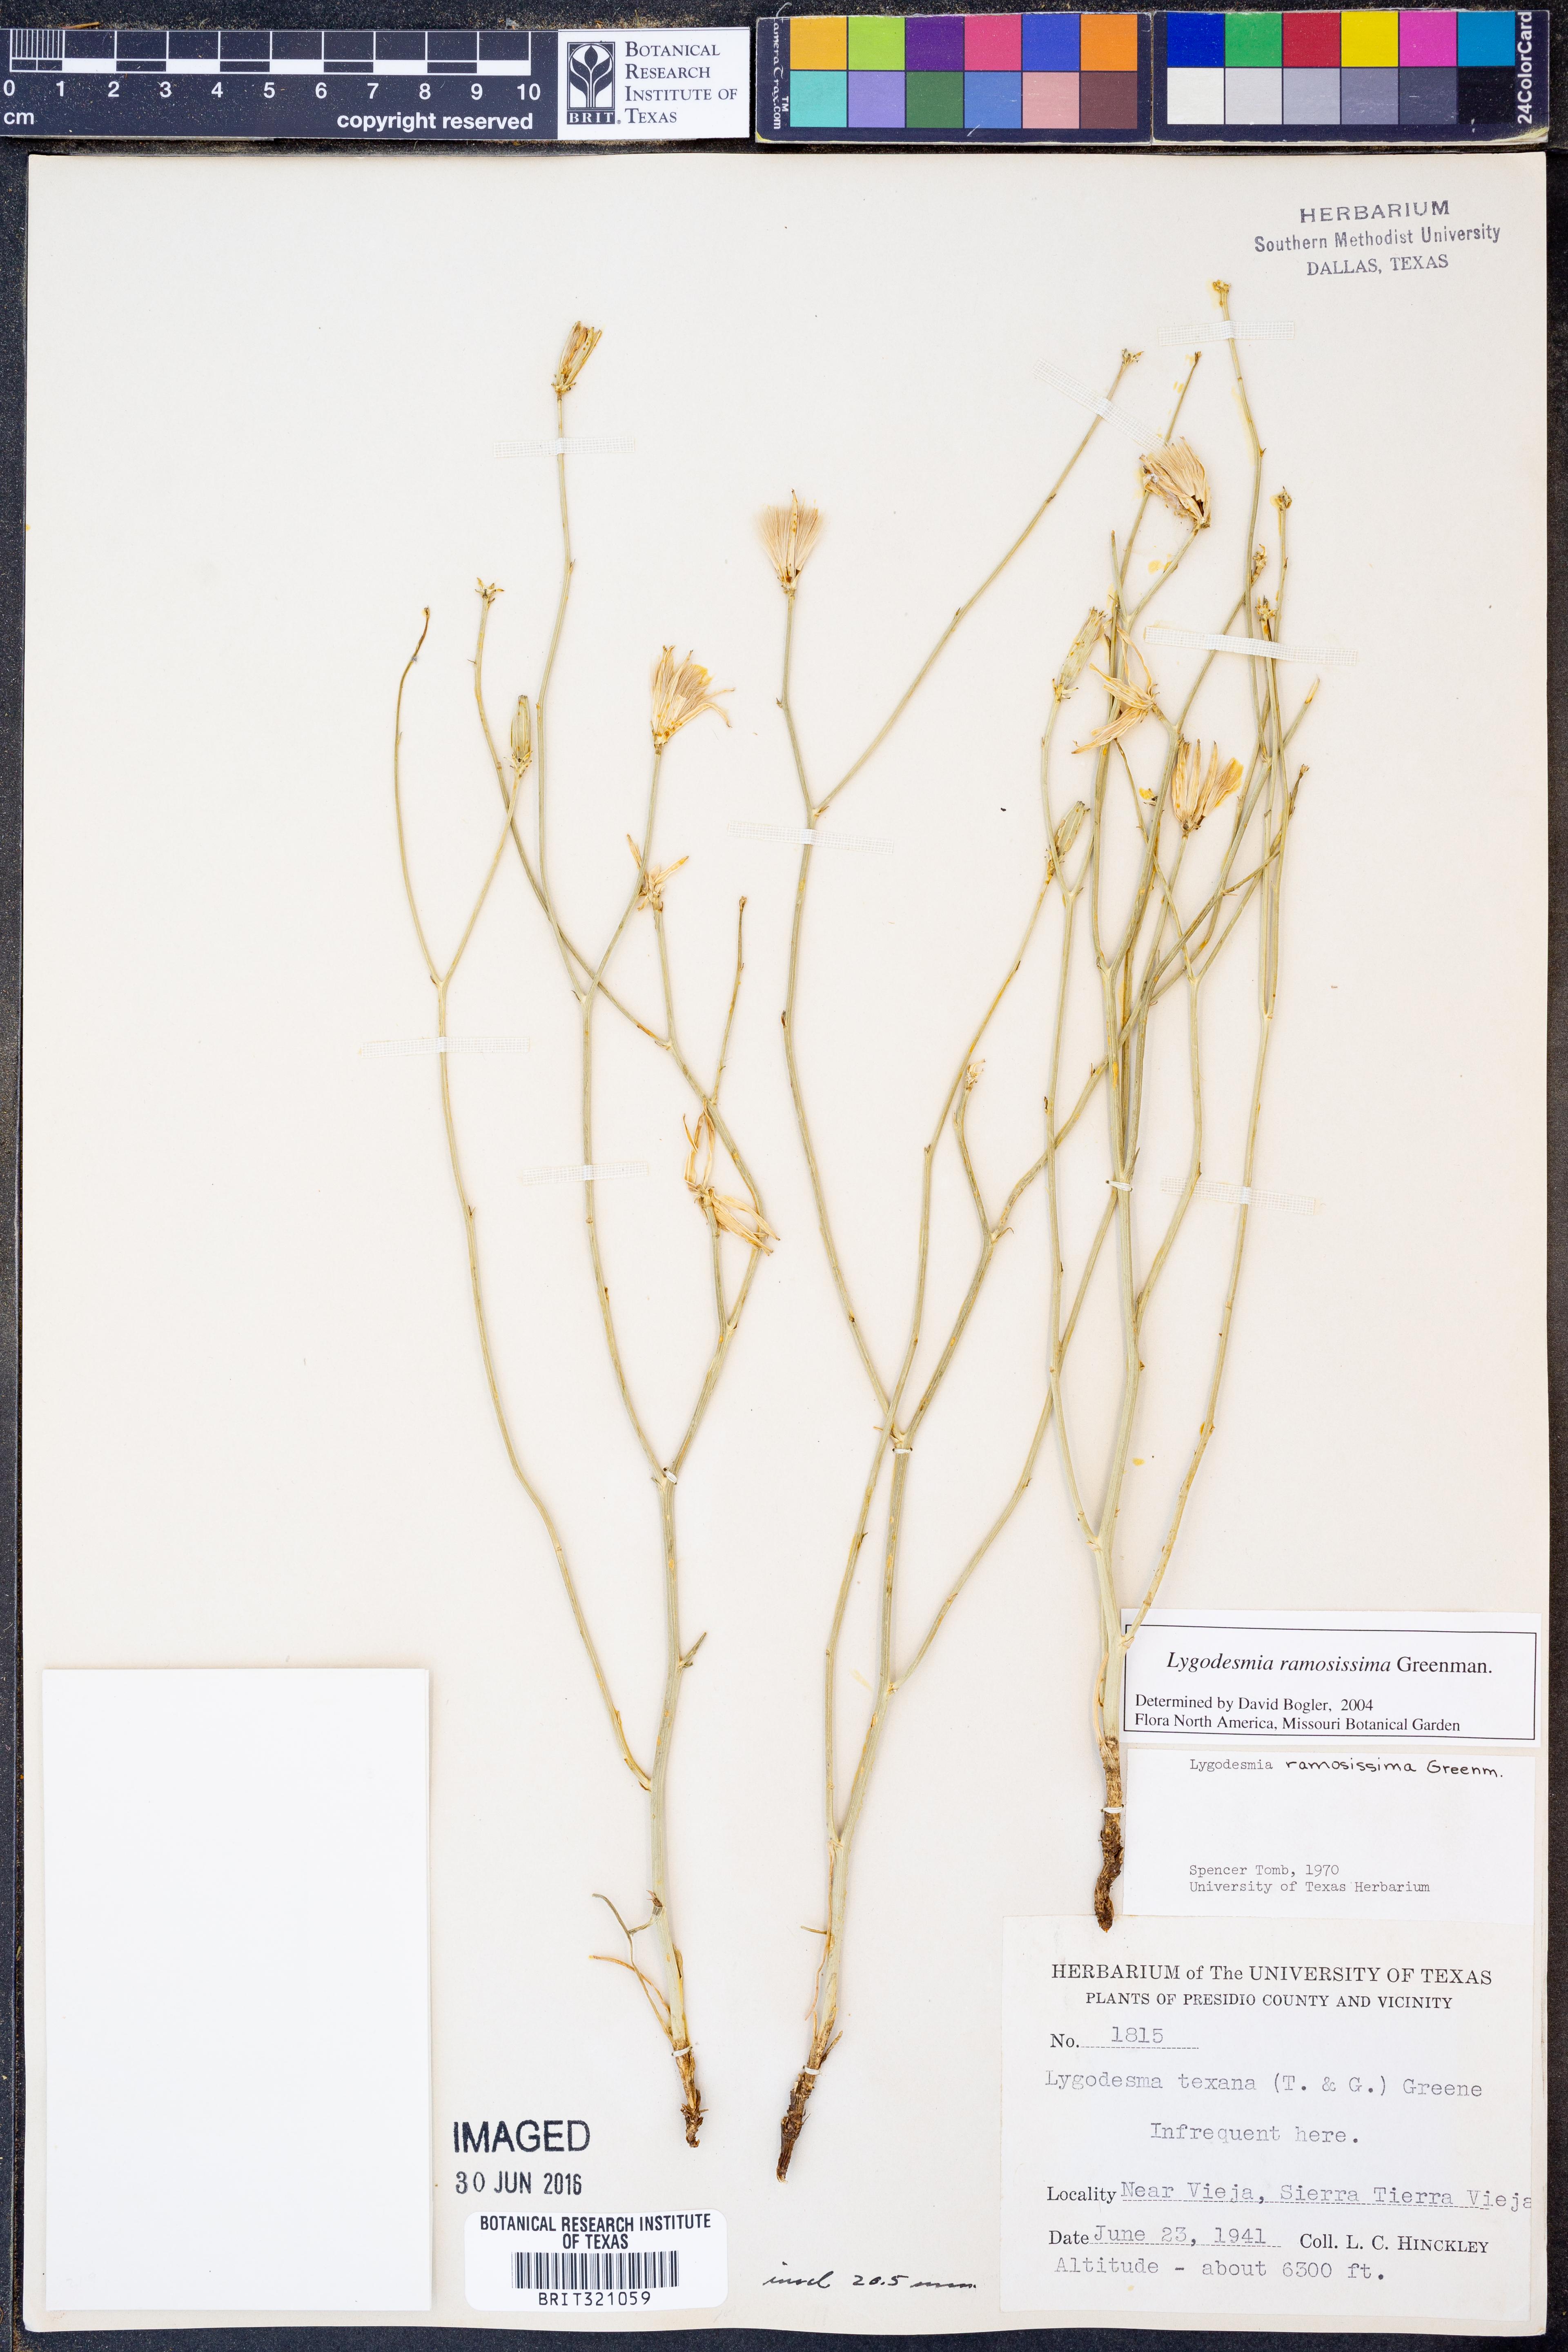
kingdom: Plantae
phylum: Tracheophyta
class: Magnoliopsida
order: Asterales
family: Asteraceae
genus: Lygodesmia
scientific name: Lygodesmia ramosissima
